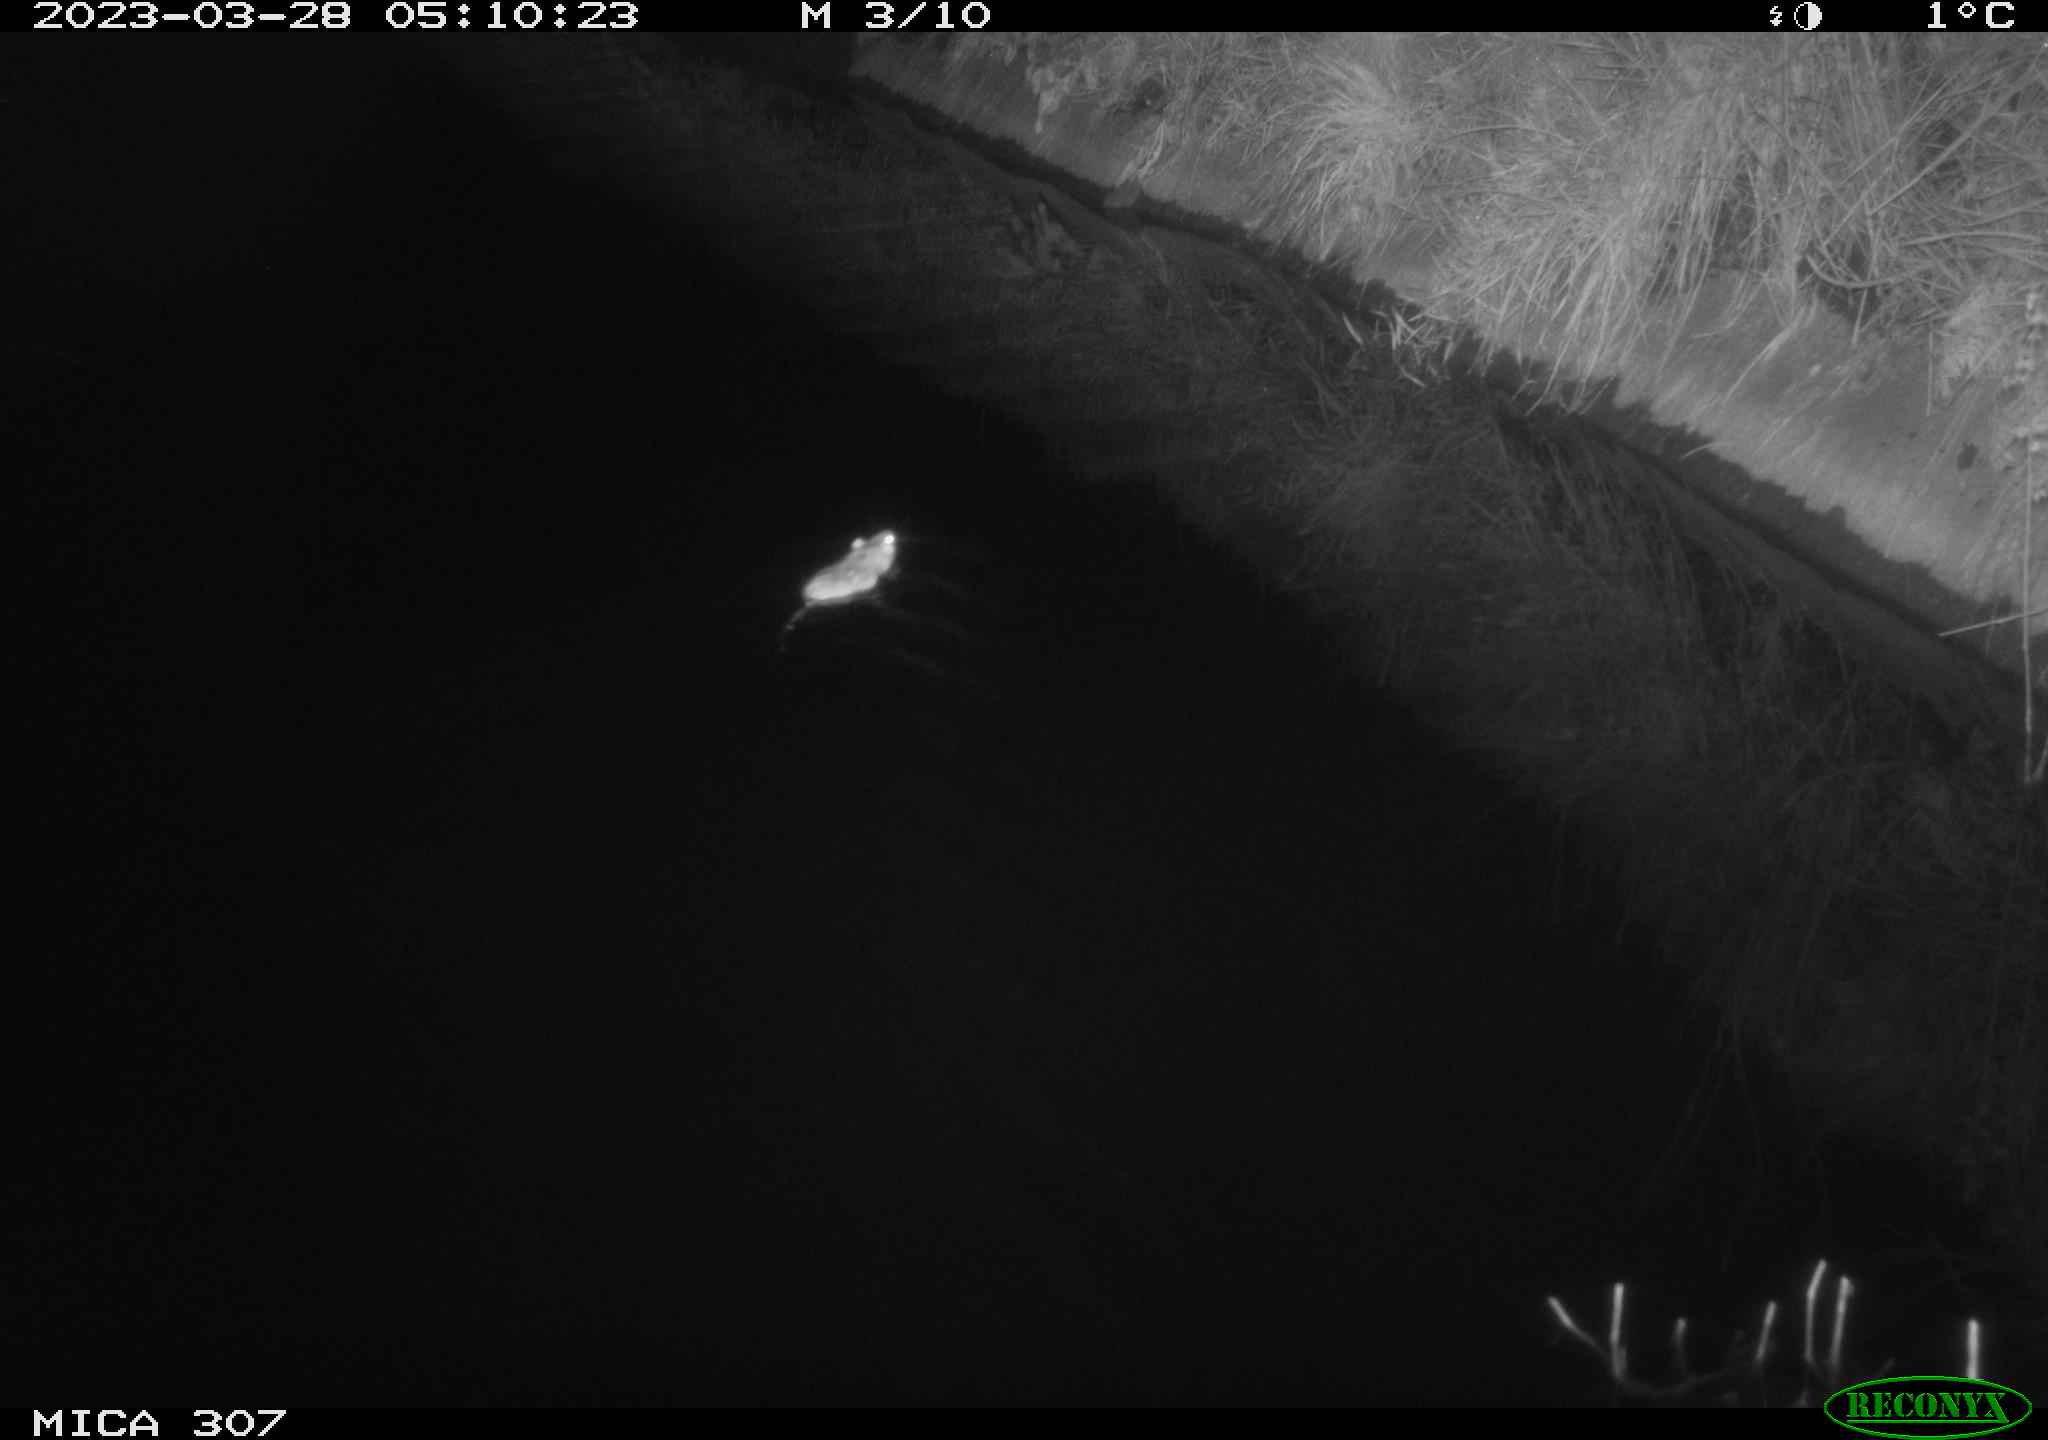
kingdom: Animalia
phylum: Chordata
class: Mammalia
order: Rodentia
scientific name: Rodentia
